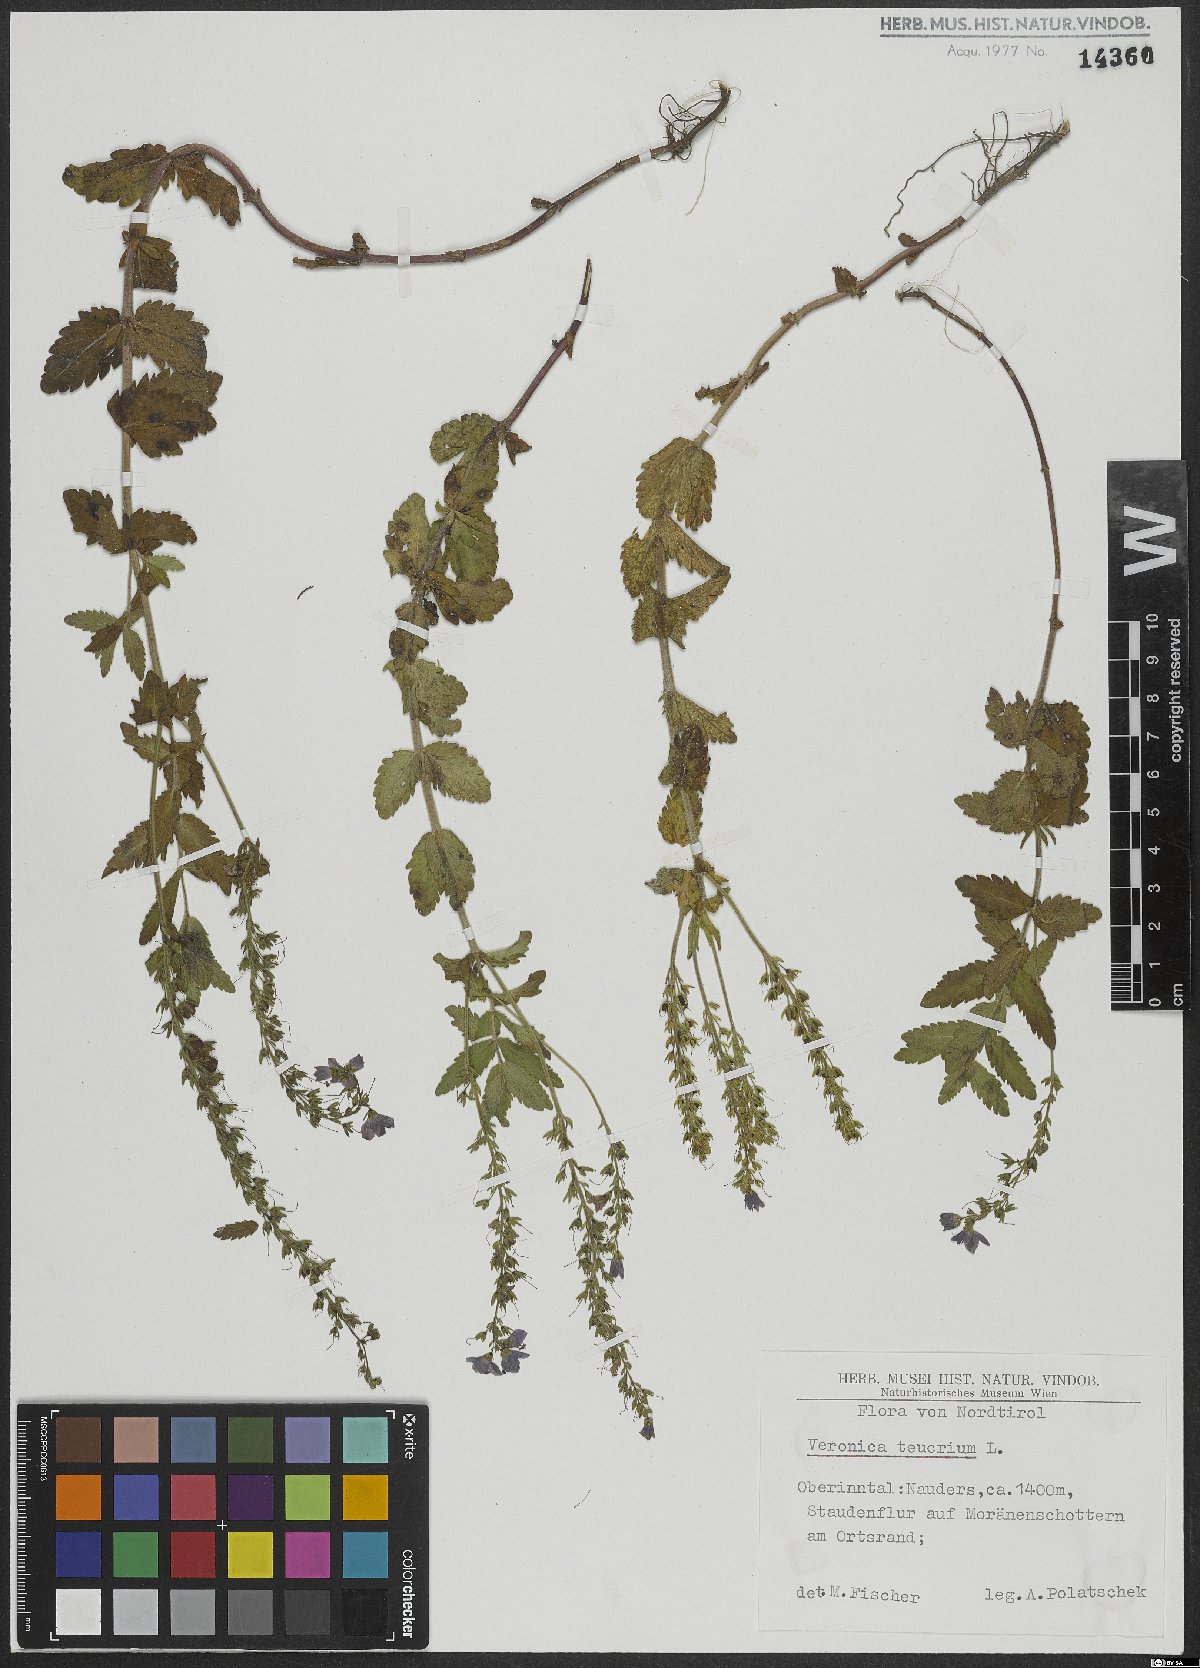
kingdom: Plantae
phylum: Tracheophyta
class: Magnoliopsida
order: Lamiales
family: Plantaginaceae
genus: Veronica
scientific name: Veronica teucrium
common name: Large speedwell
